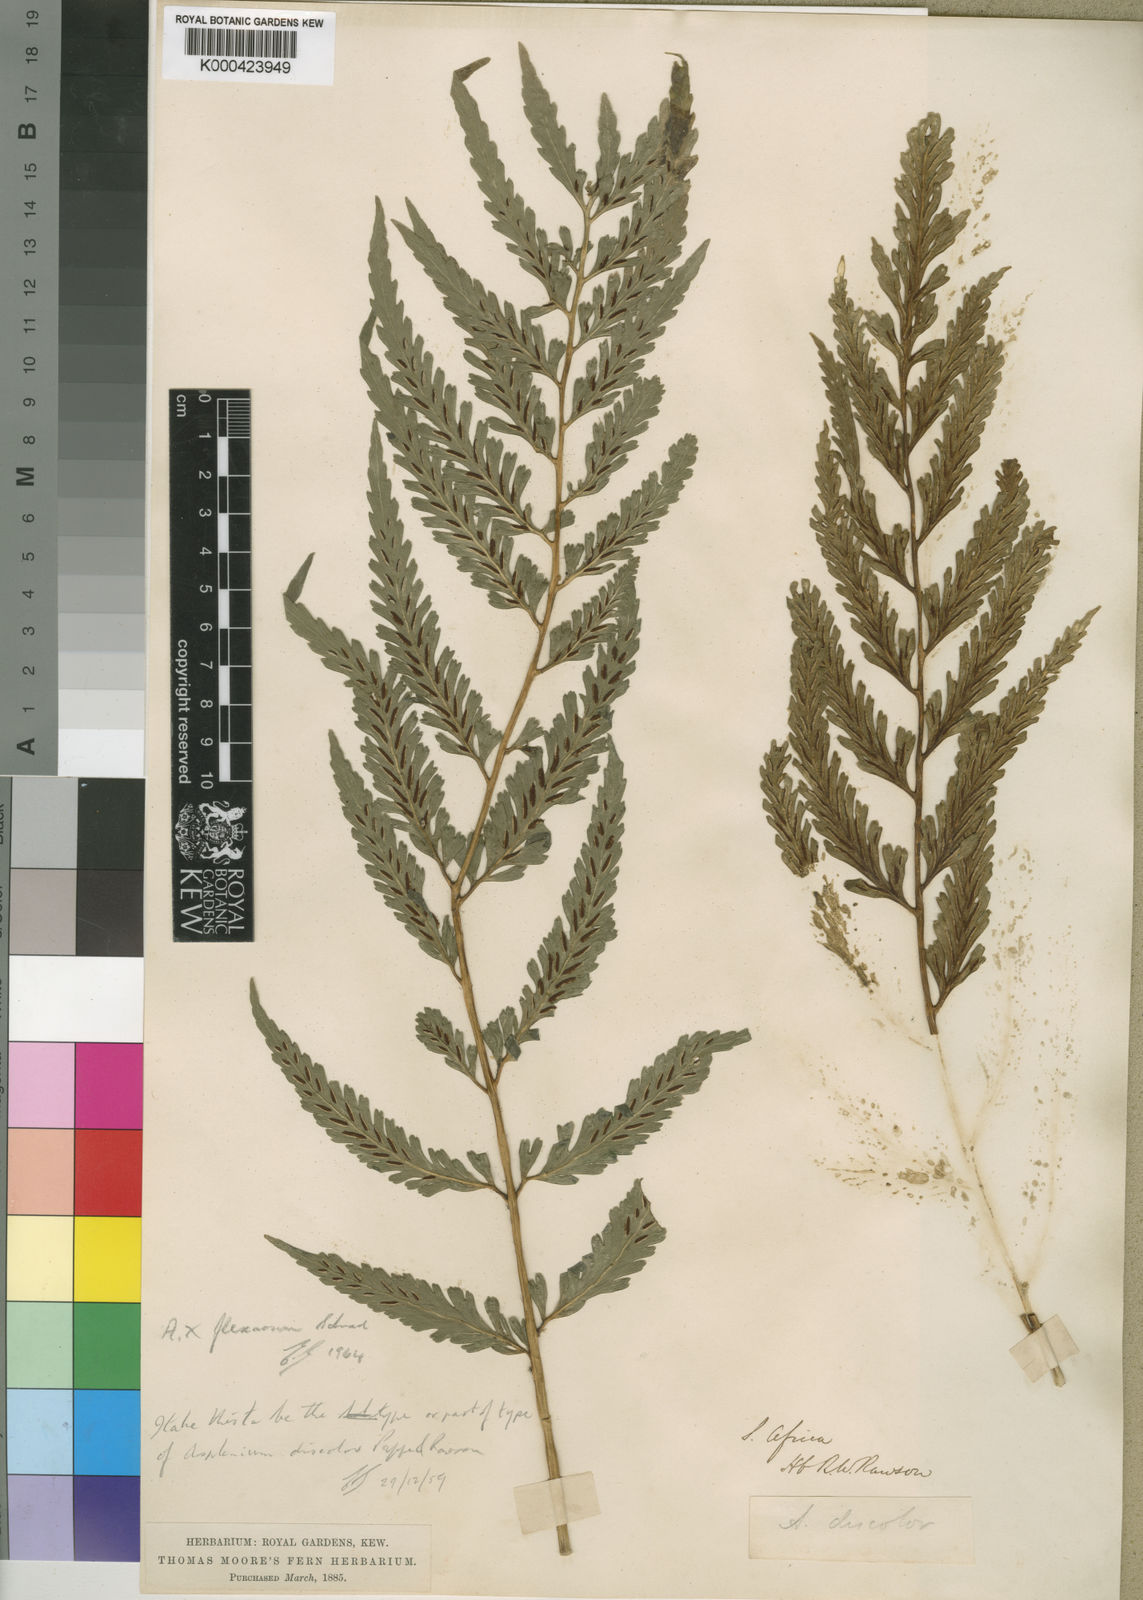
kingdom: Plantae
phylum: Tracheophyta
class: Polypodiopsida
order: Polypodiales
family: Aspleniaceae
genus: Asplenium
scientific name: Asplenium flexuosum
